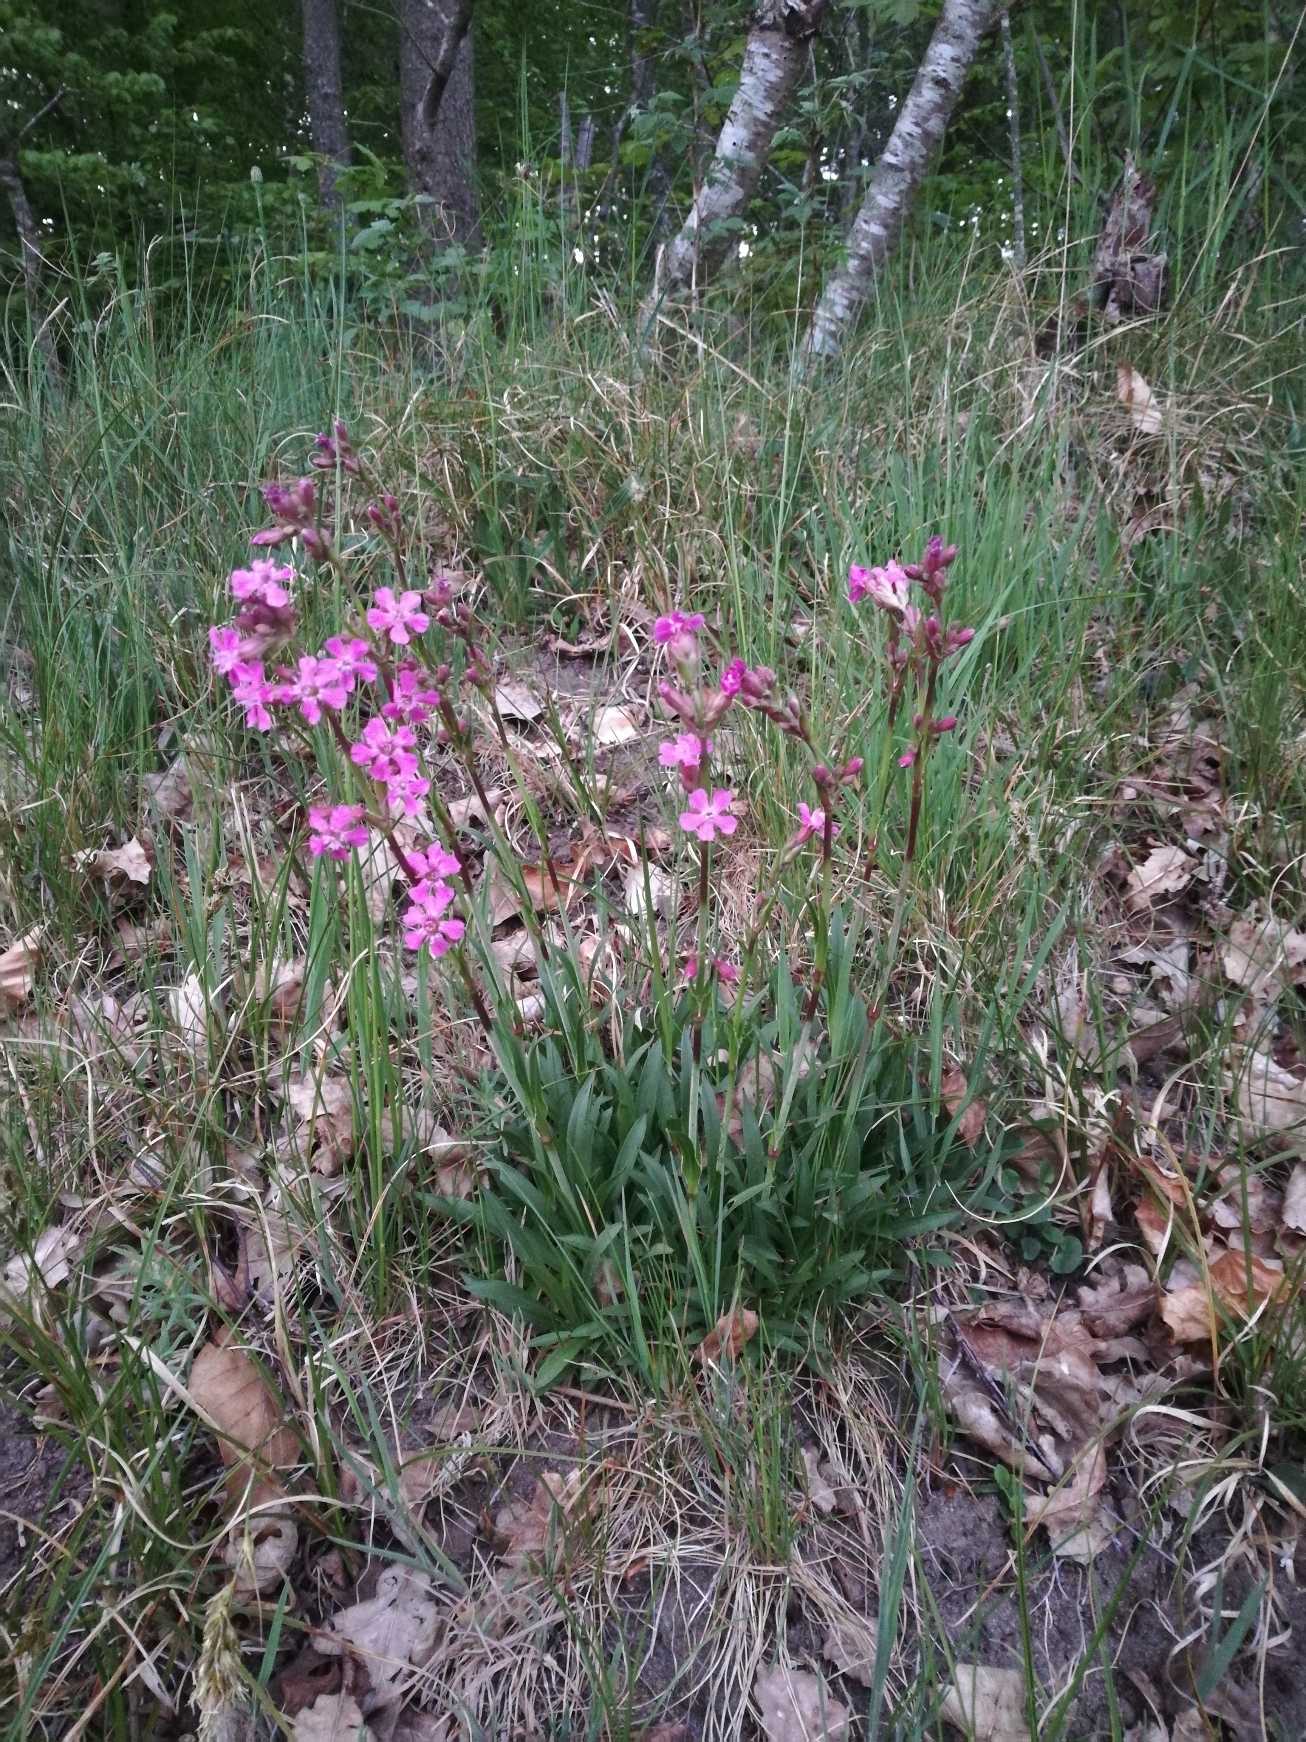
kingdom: Plantae
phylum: Tracheophyta
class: Magnoliopsida
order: Caryophyllales
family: Caryophyllaceae
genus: Viscaria
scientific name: Viscaria vulgaris
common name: Tjærenellike
